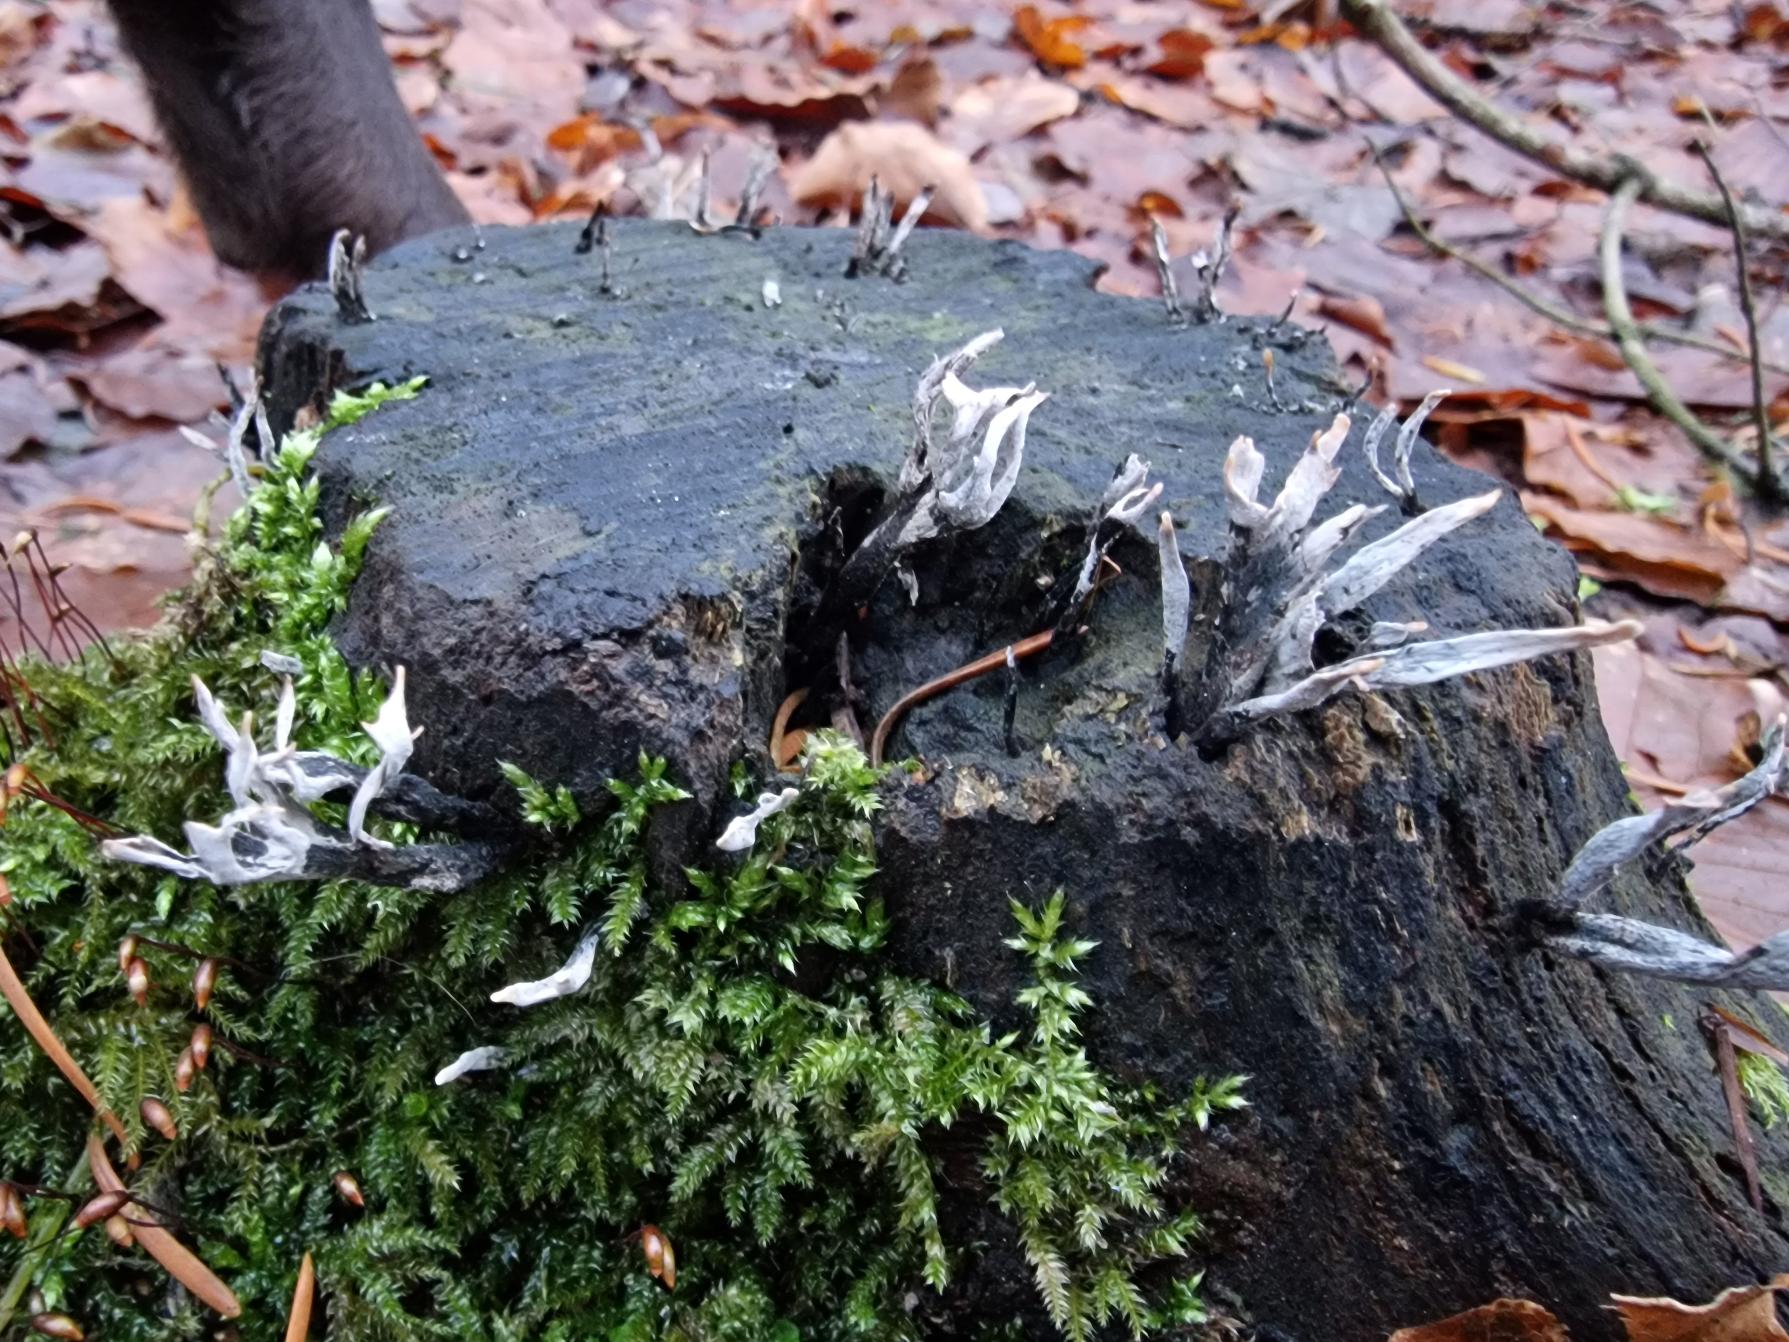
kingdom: Fungi
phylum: Ascomycota
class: Sordariomycetes
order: Xylariales
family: Xylariaceae
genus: Xylaria
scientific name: Xylaria hypoxylon
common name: Grenet stødsvamp
